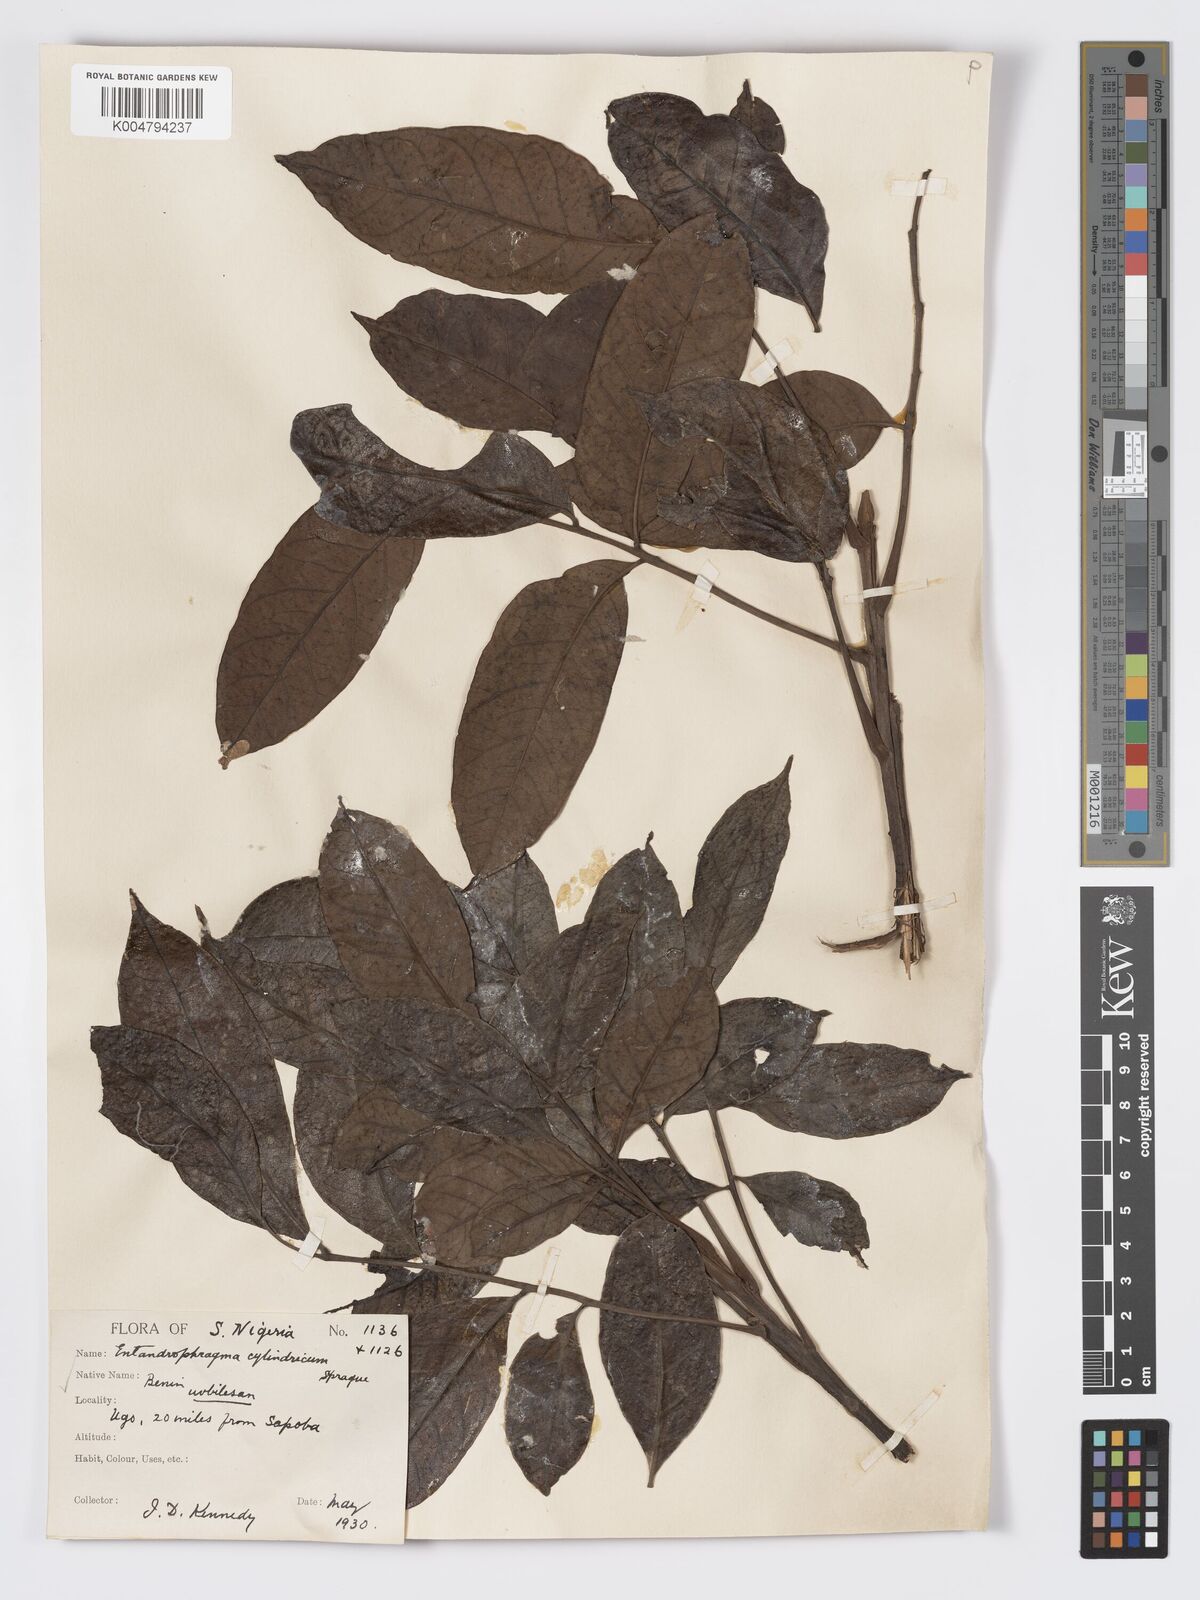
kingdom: Plantae
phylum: Tracheophyta
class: Magnoliopsida
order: Sapindales
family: Meliaceae
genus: Entandrophragma
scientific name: Entandrophragma cylindricum
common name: Sapele
